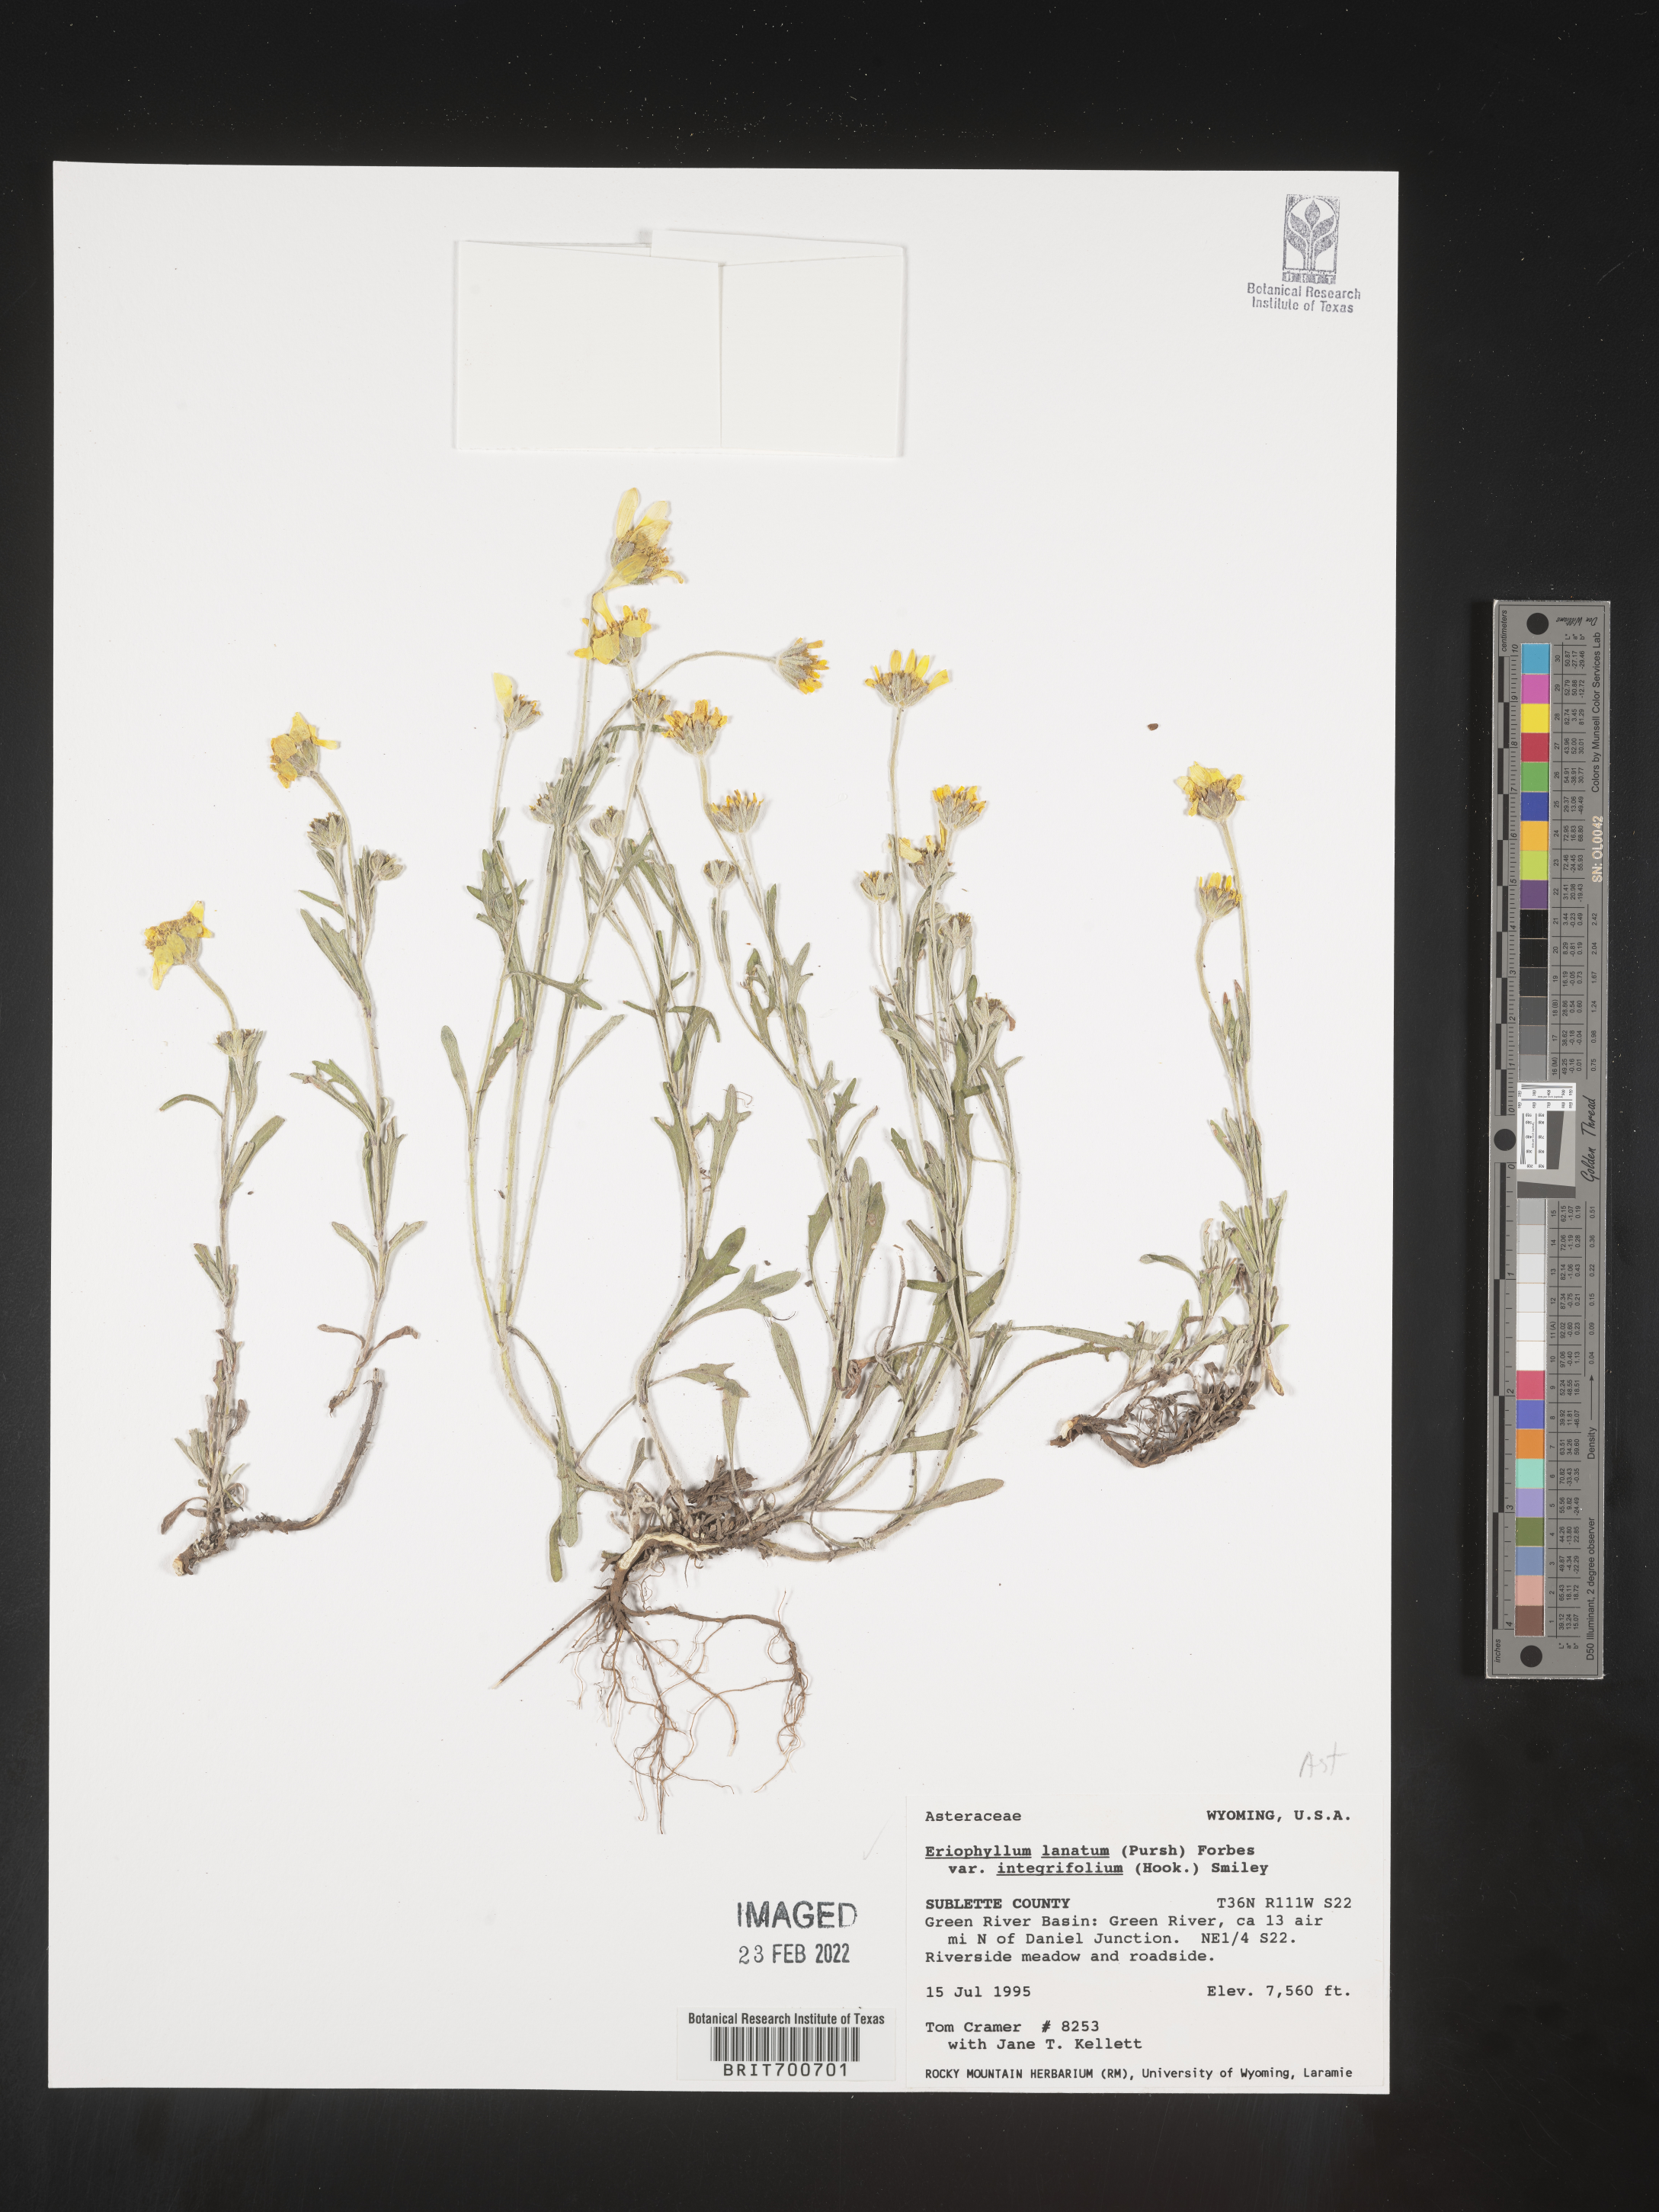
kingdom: Plantae
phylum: Tracheophyta
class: Magnoliopsida
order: Asterales
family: Asteraceae
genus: Eriophyllum
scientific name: Eriophyllum lanatum
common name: Common woolly-sunflower
